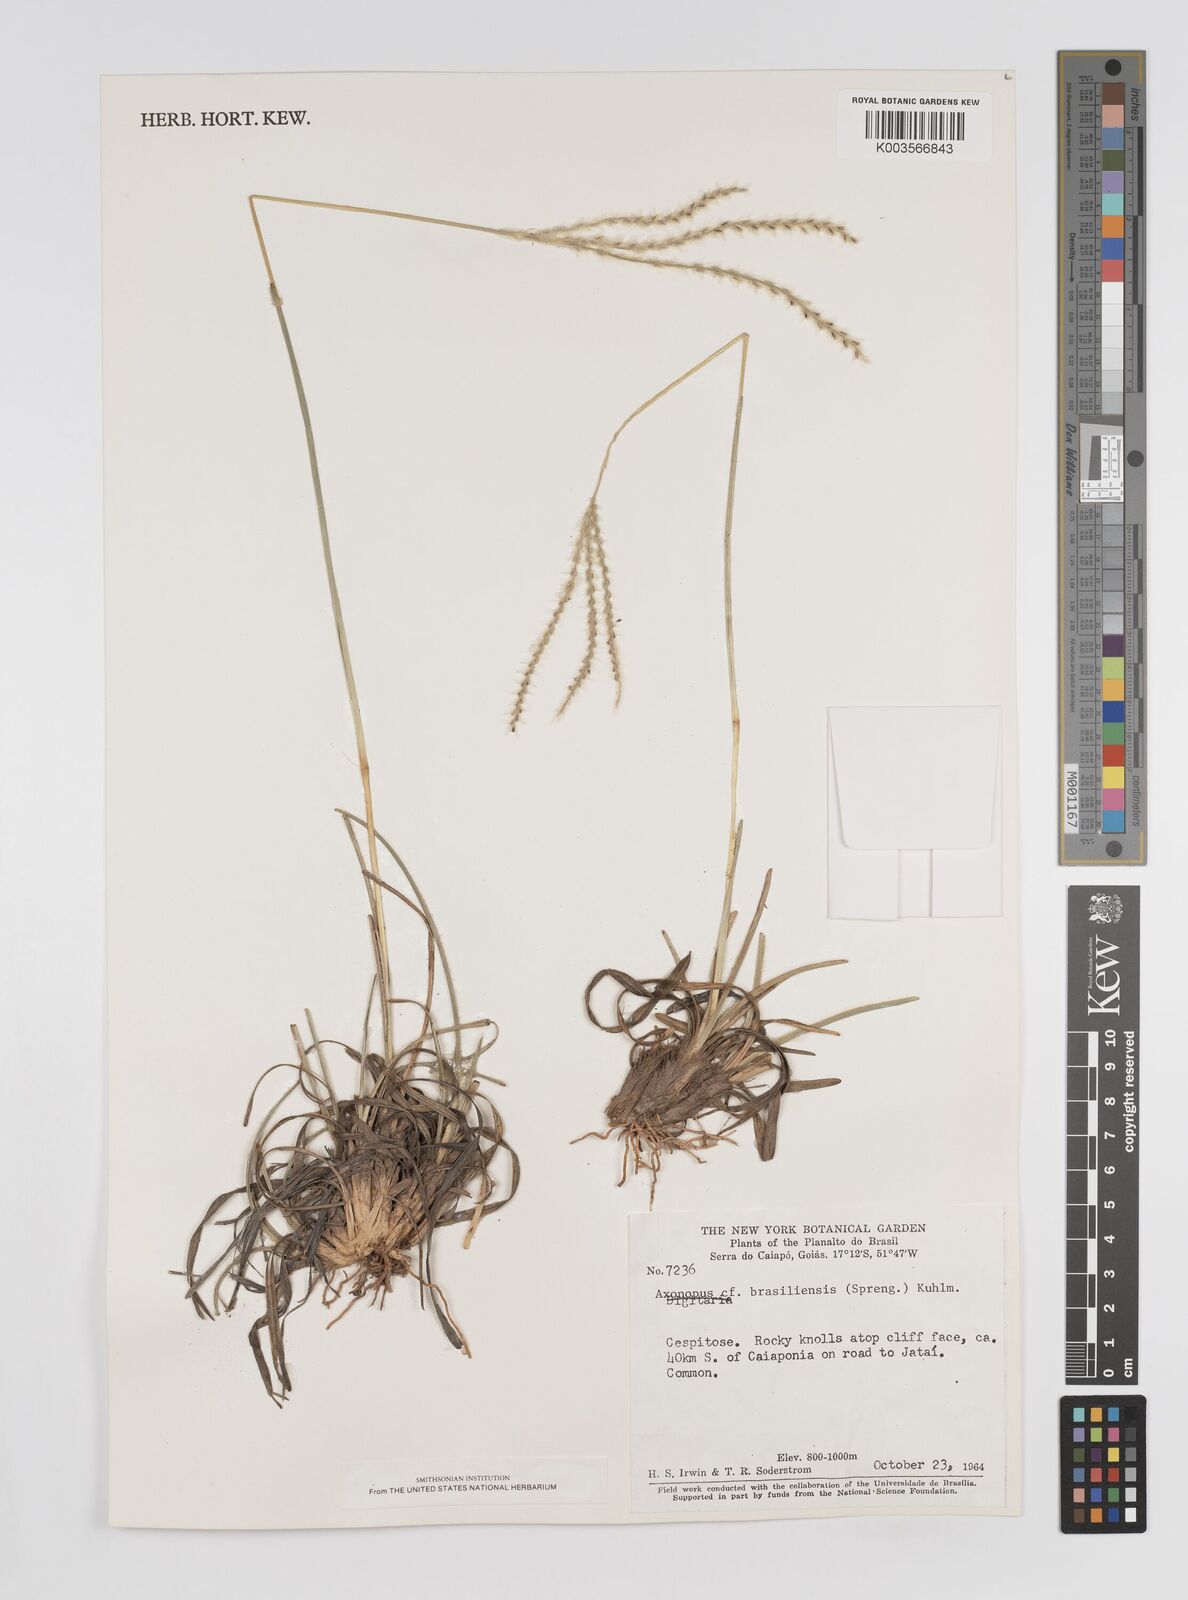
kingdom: Plantae
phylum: Tracheophyta
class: Liliopsida
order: Poales
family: Poaceae
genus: Axonopus
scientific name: Axonopus brasiliensis
